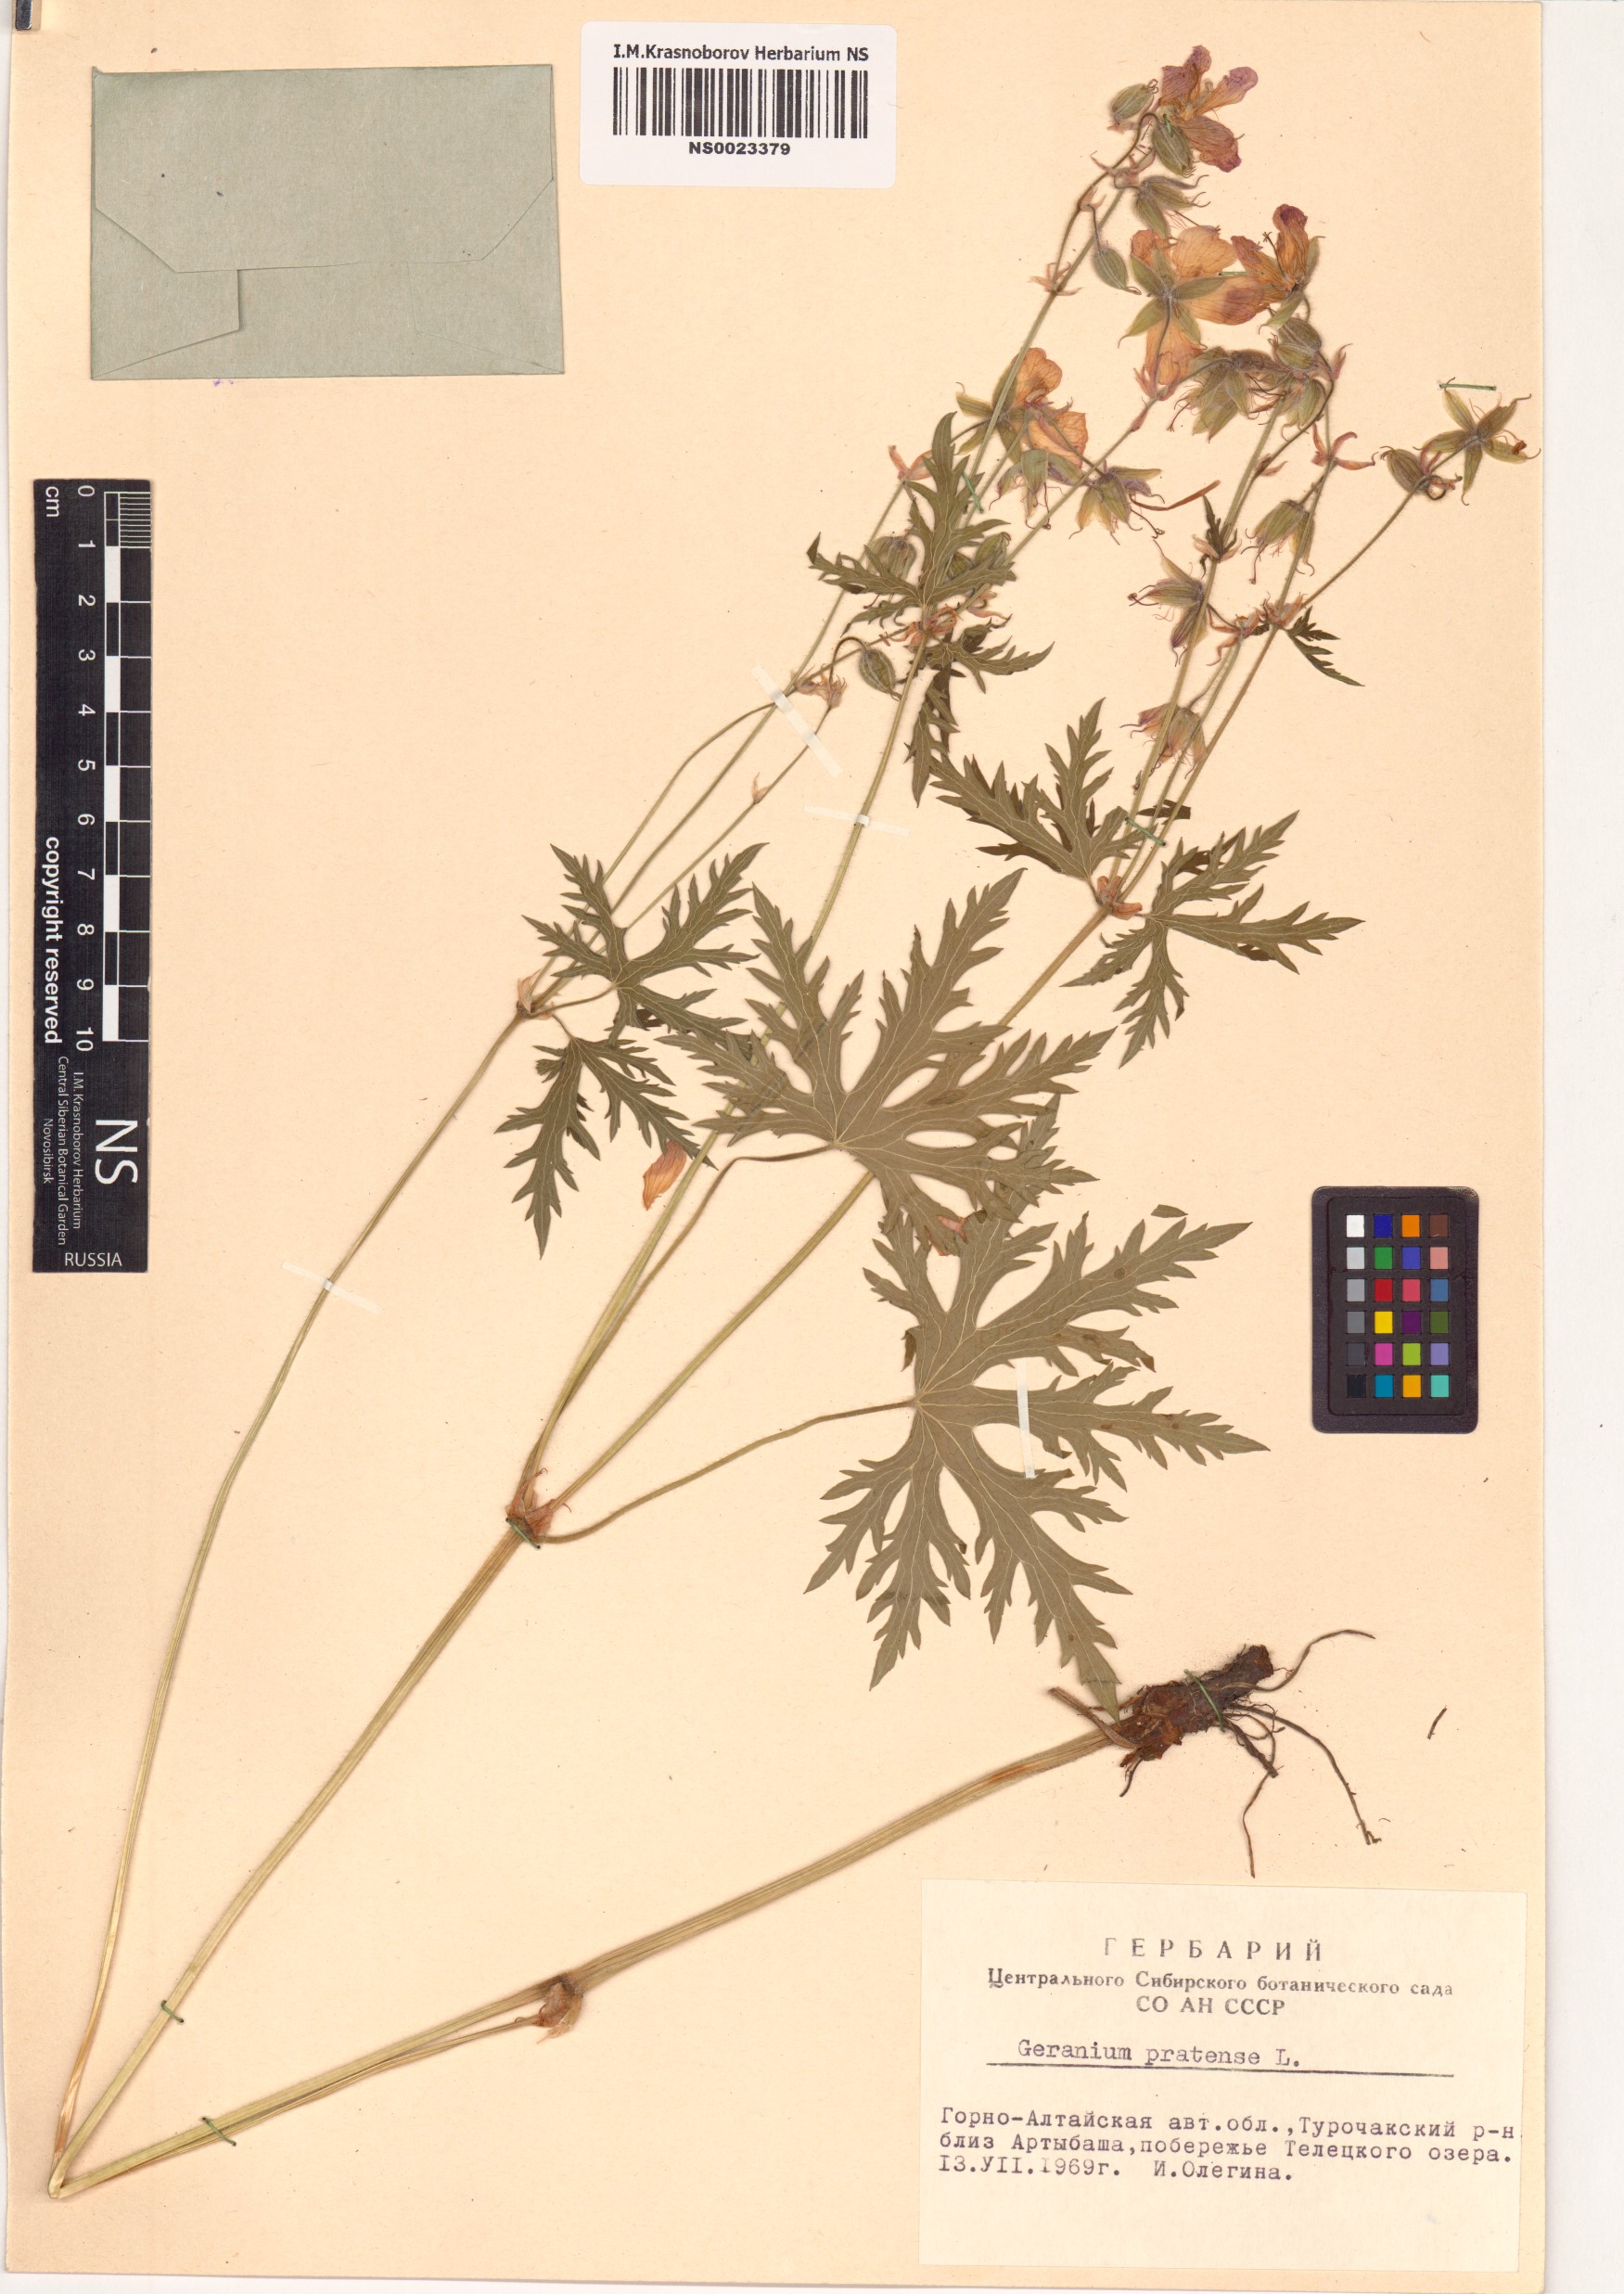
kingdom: Plantae
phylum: Tracheophyta
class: Magnoliopsida
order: Geraniales
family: Geraniaceae
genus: Geranium
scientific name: Geranium pratense
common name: Meadow crane's-bill
